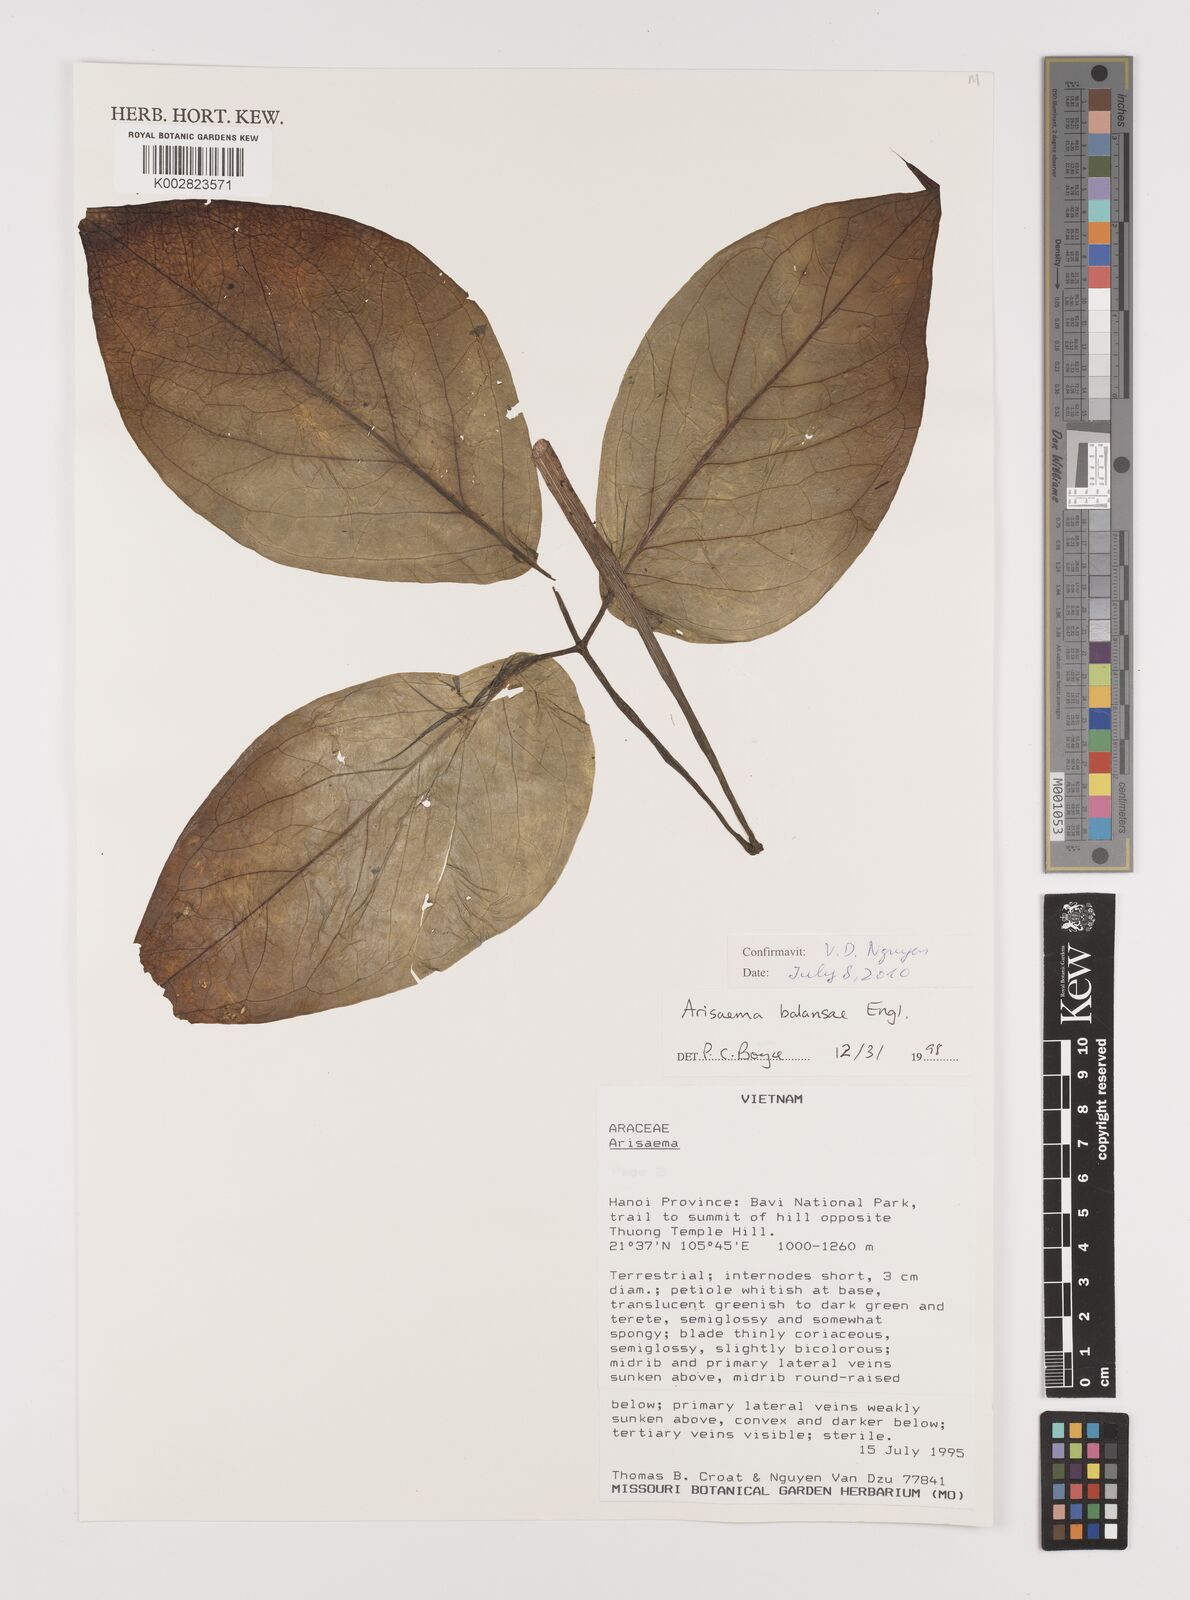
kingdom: Plantae
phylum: Tracheophyta
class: Liliopsida
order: Alismatales
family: Araceae
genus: Arisaema
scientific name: Arisaema balansae
